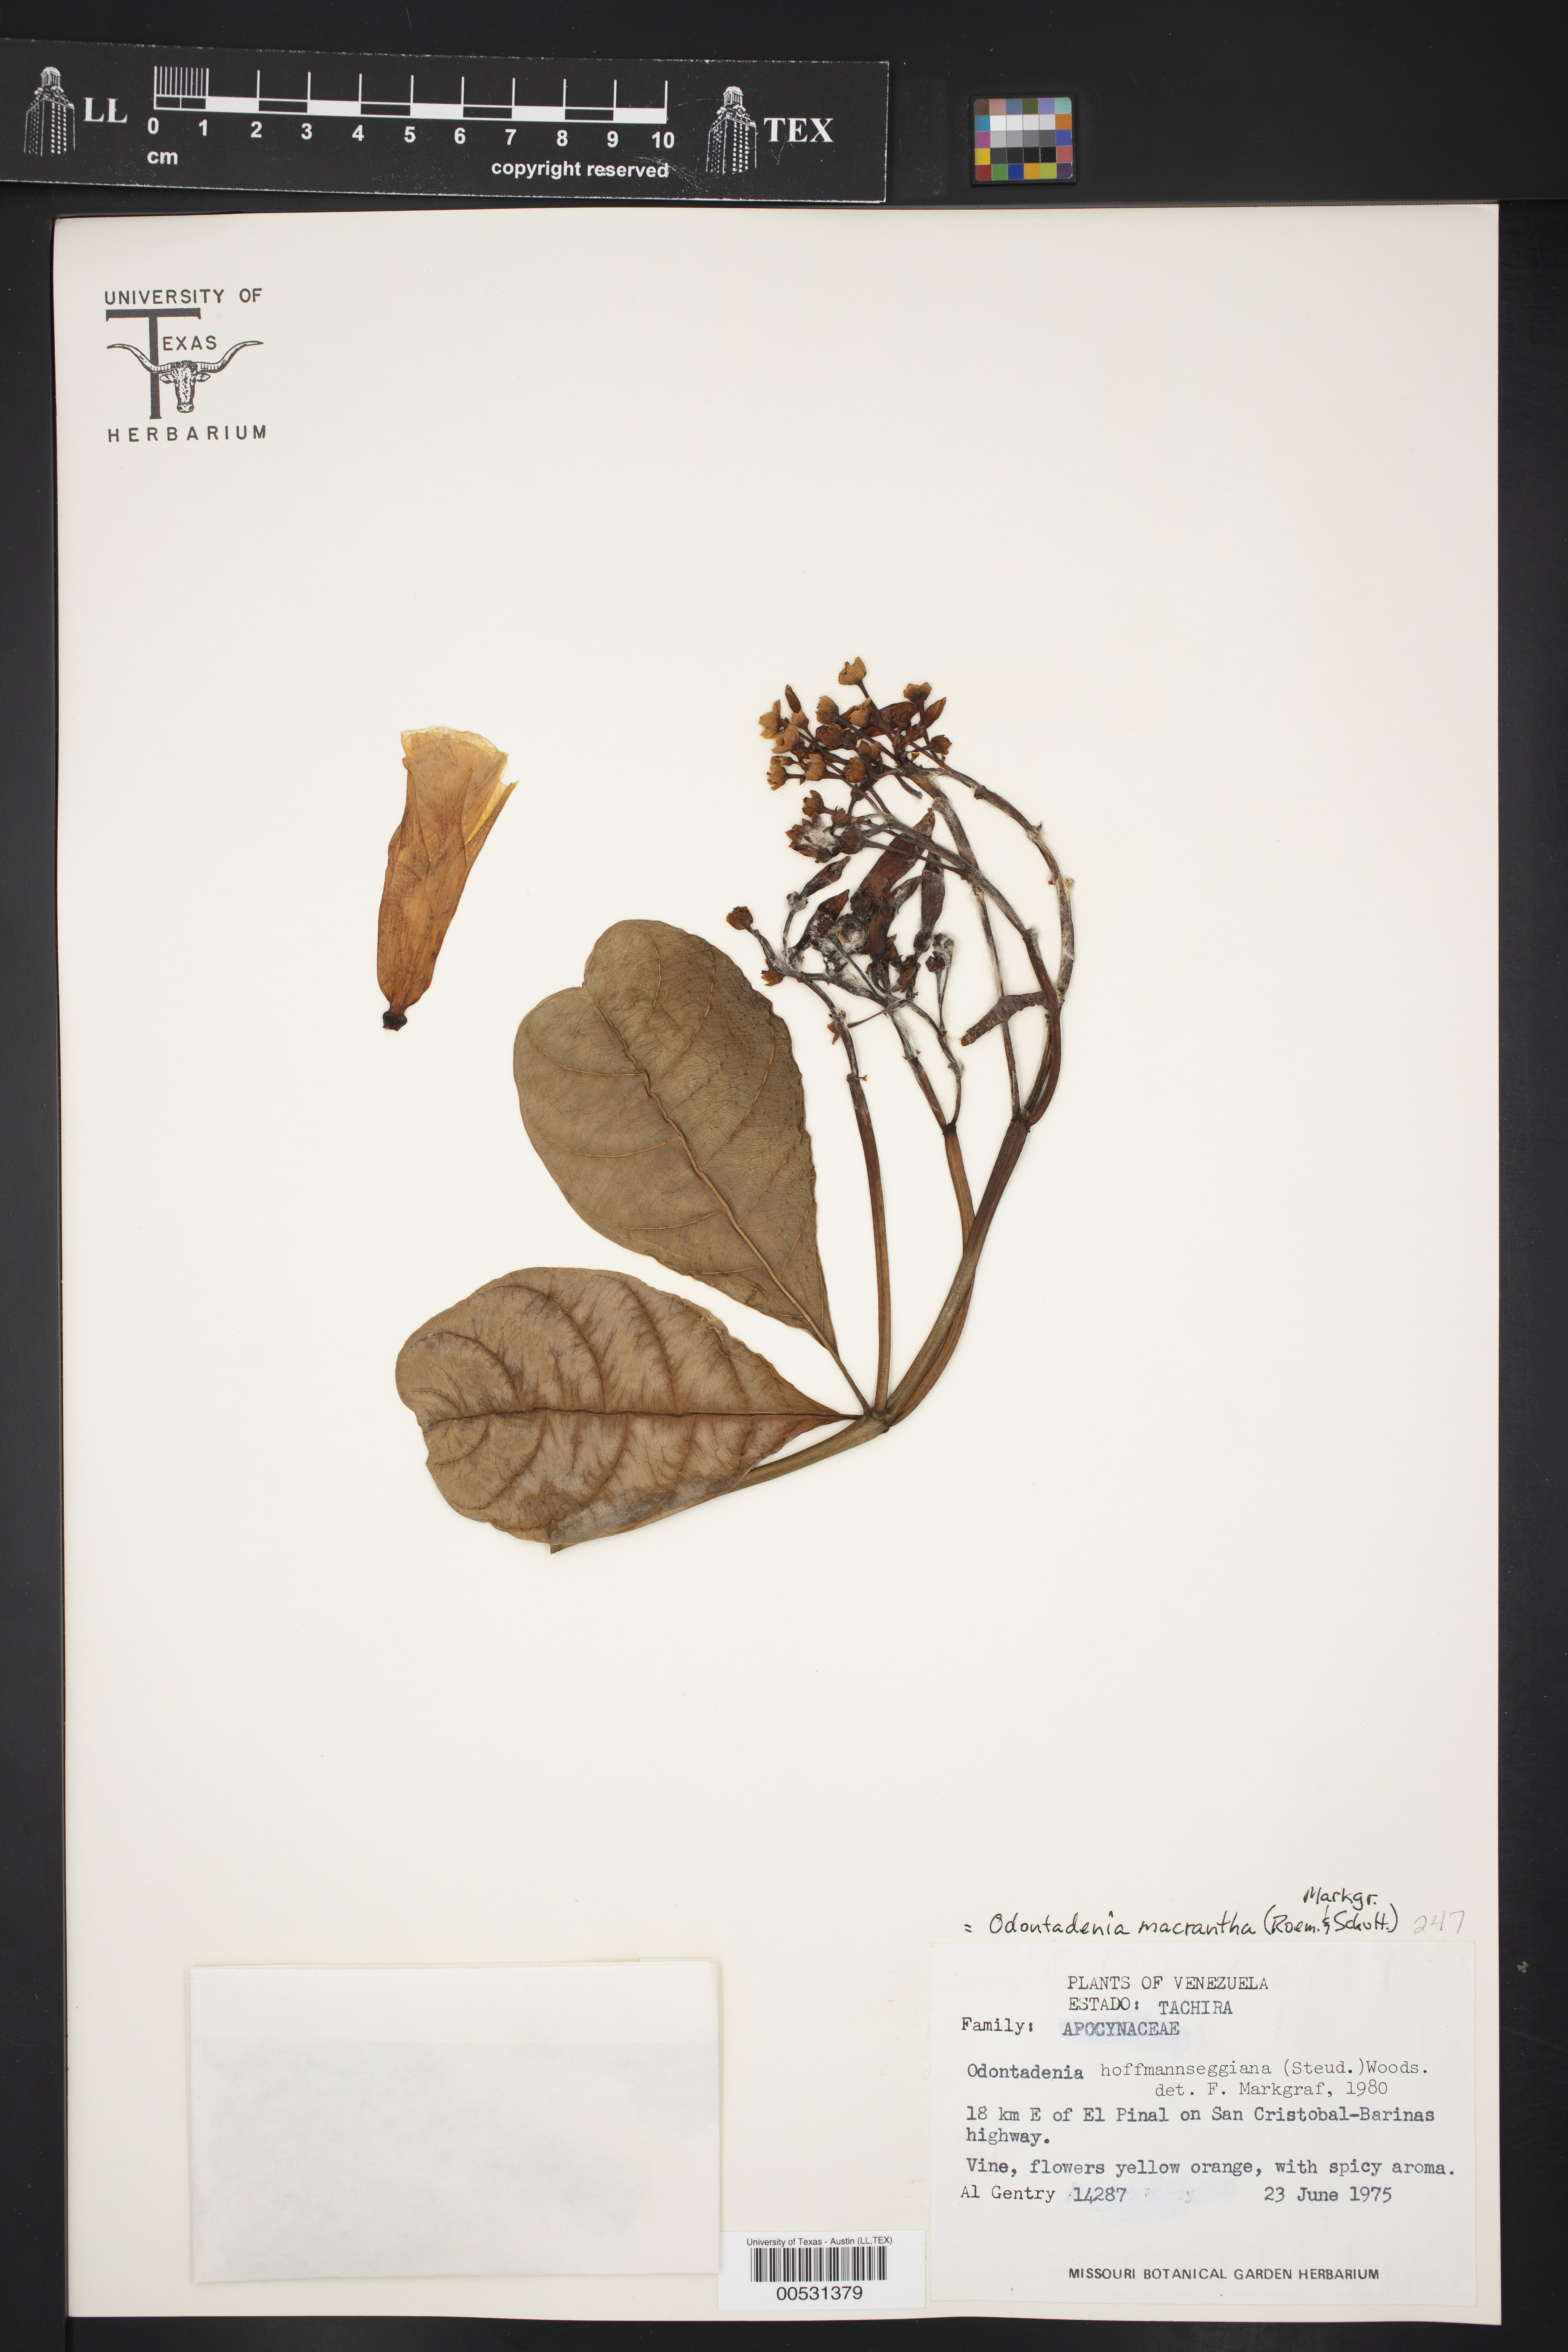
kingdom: Plantae
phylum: Tracheophyta
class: Magnoliopsida
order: Gentianales
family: Apocynaceae
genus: Odontadenia
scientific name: Odontadenia semidigyna
